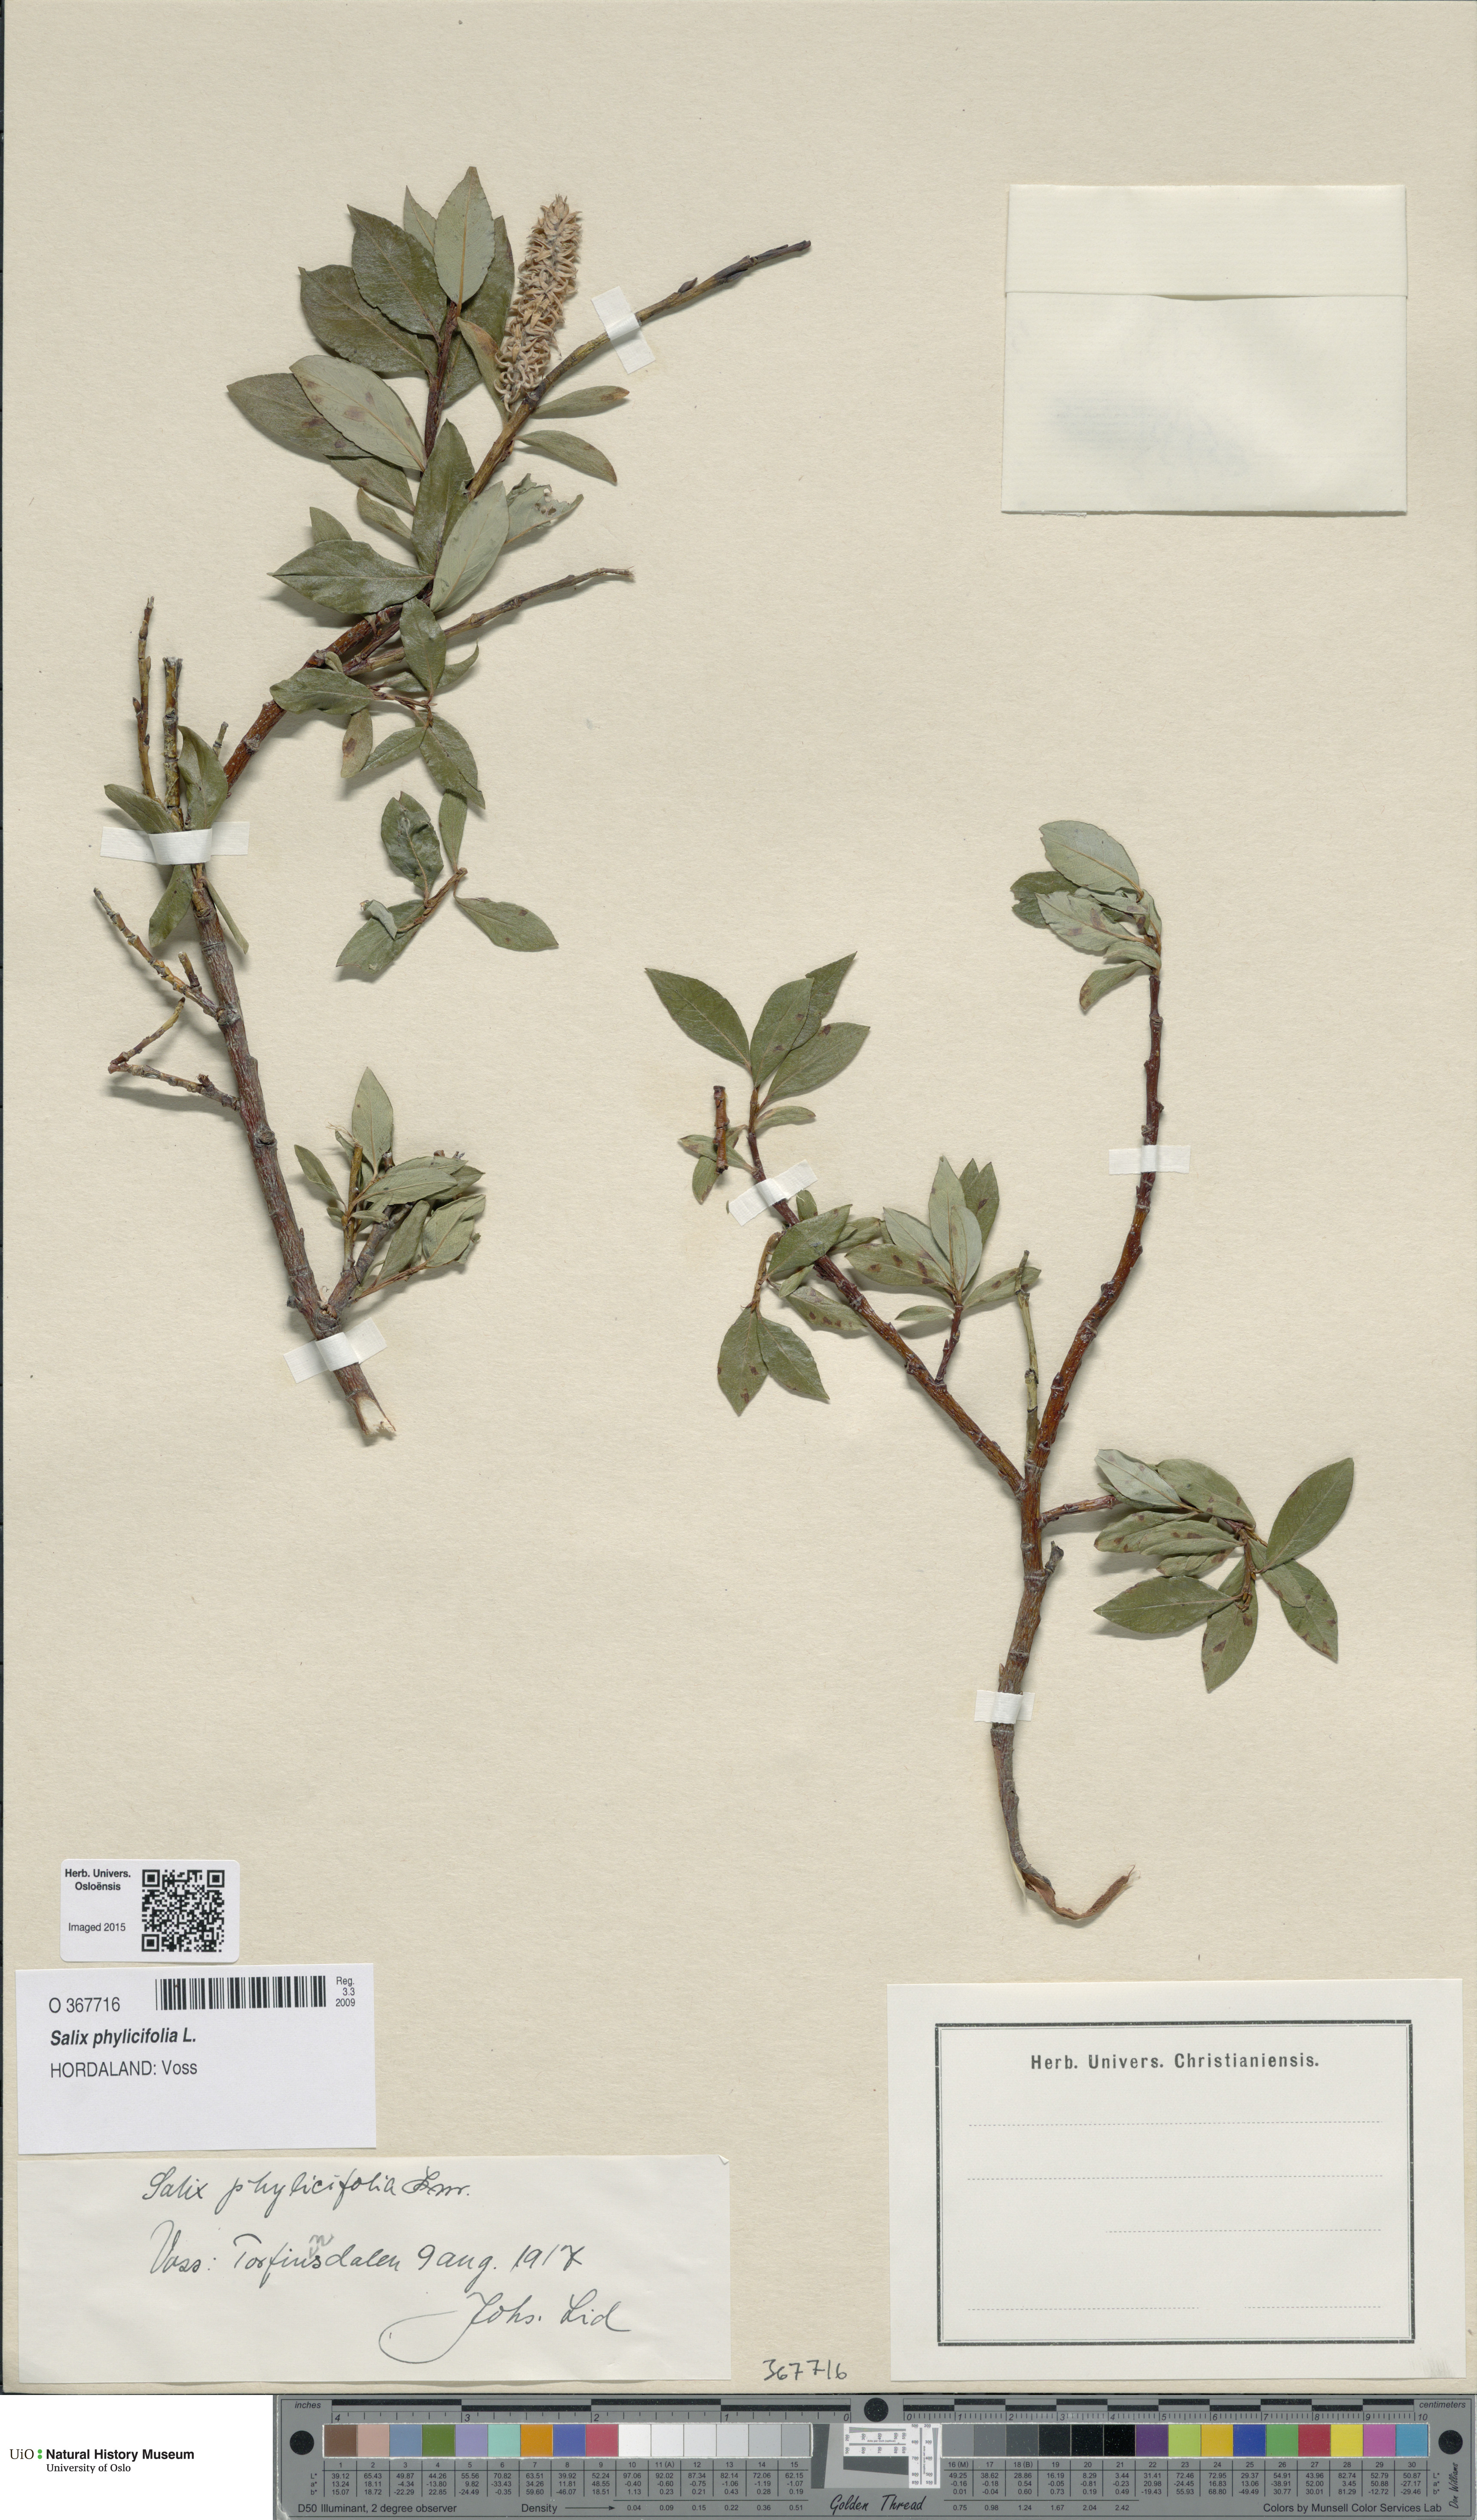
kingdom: Plantae
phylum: Tracheophyta
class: Magnoliopsida
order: Malpighiales
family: Salicaceae
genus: Salix
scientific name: Salix phylicifolia
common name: Tea-leaved willow
